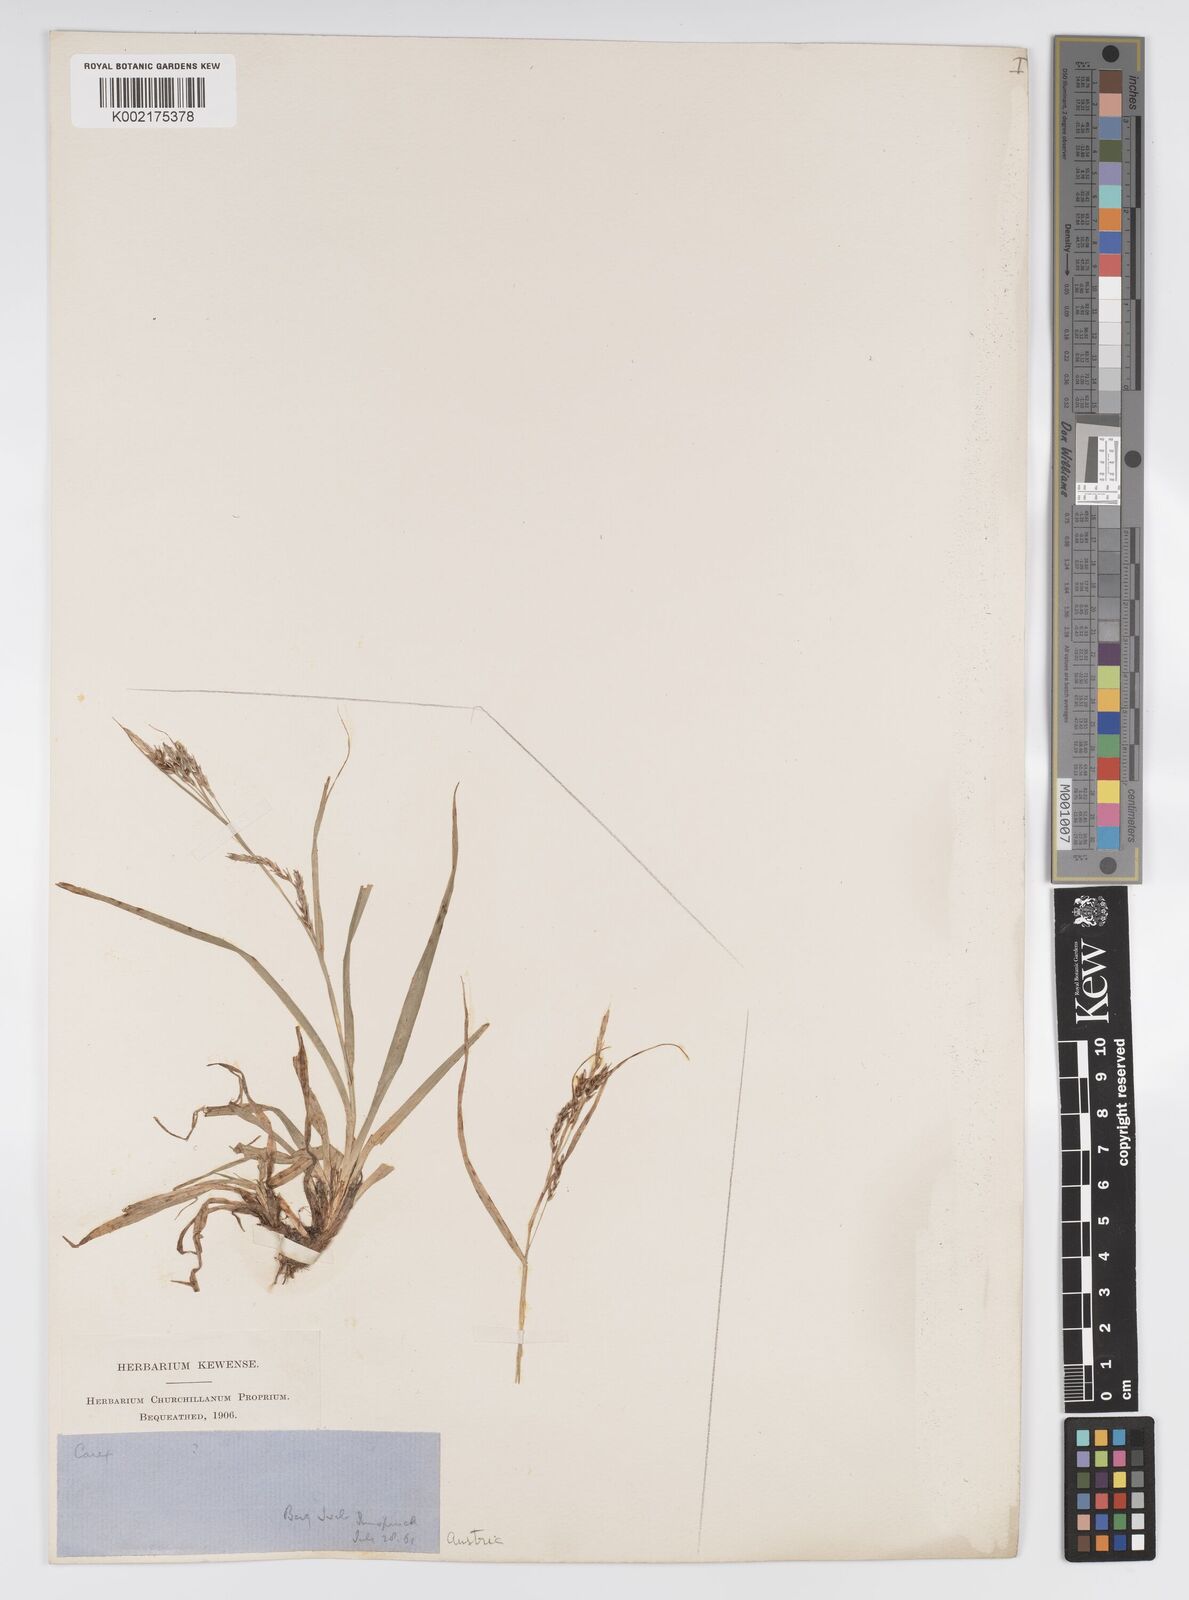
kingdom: Plantae
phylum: Tracheophyta
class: Liliopsida
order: Poales
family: Cyperaceae
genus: Carex
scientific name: Carex sylvatica
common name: Wood-sedge
